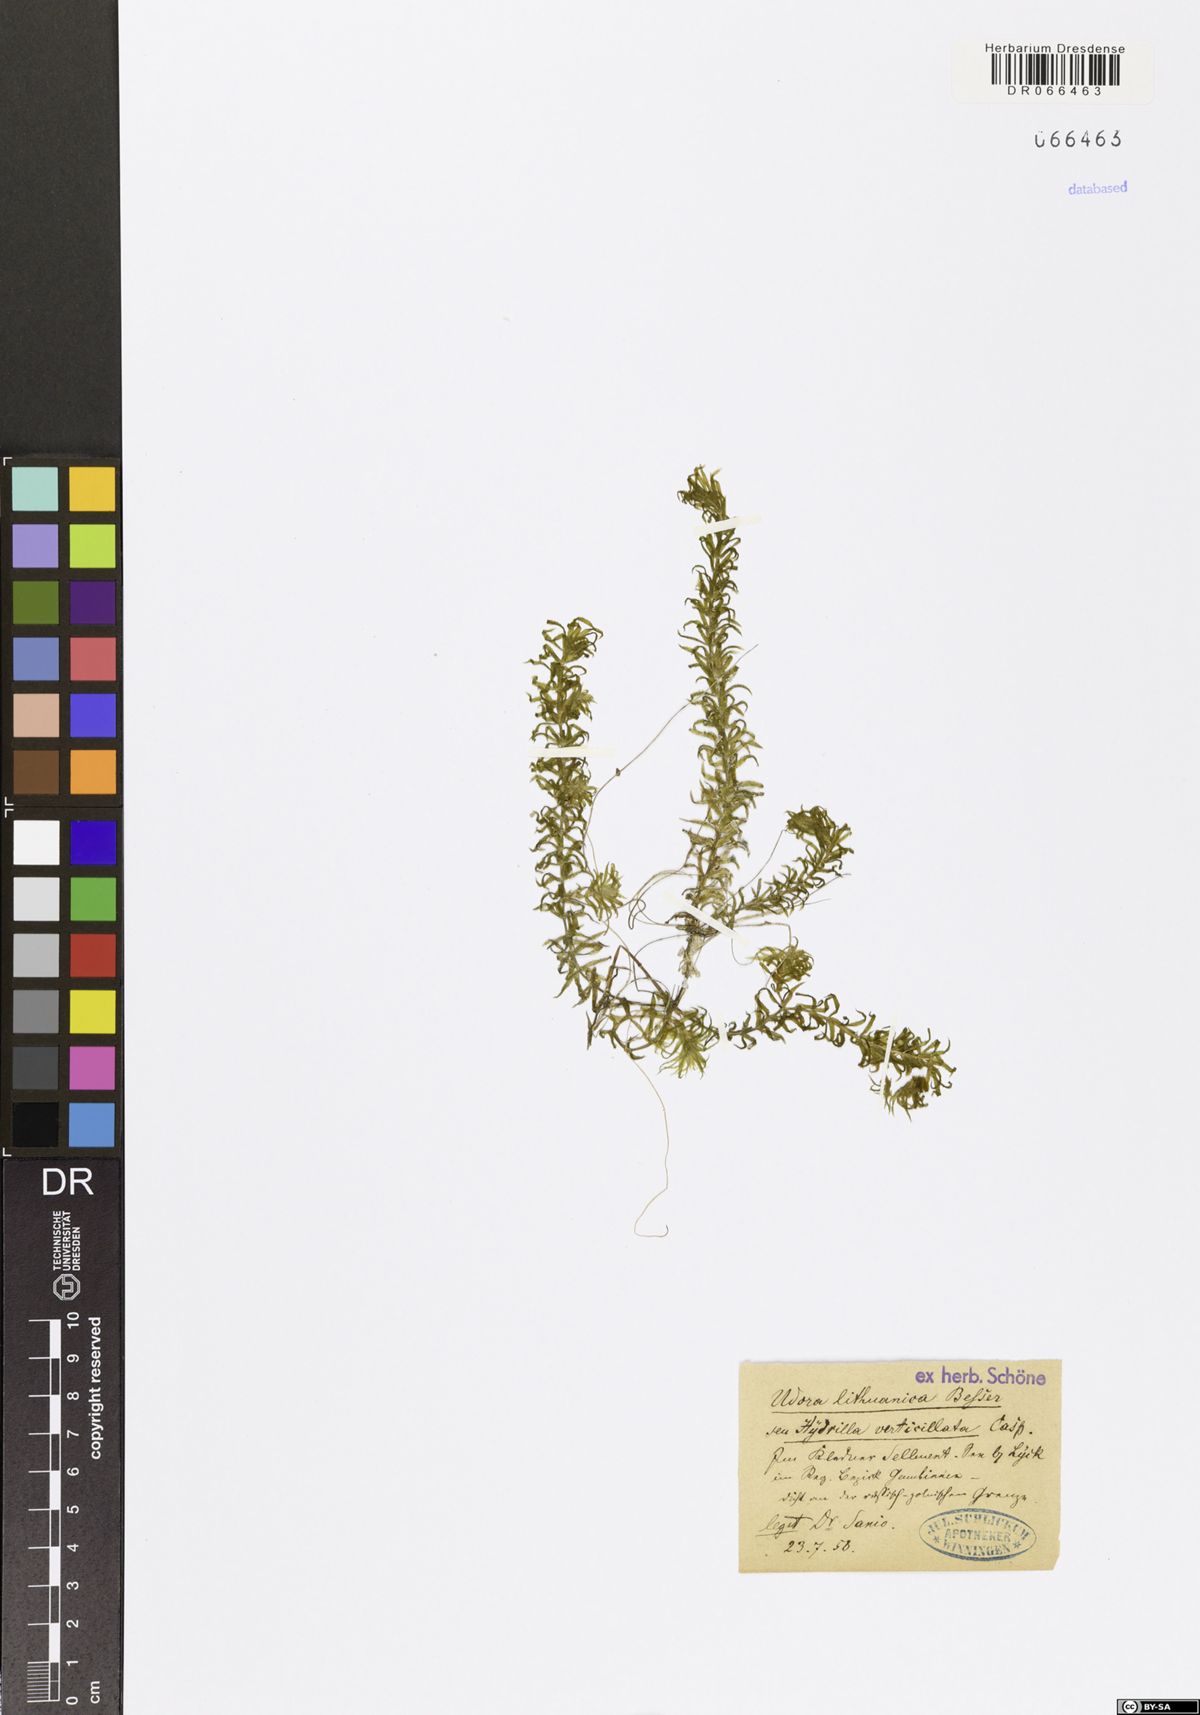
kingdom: Plantae
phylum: Tracheophyta
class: Liliopsida
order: Alismatales
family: Hydrocharitaceae
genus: Hydrilla
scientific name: Hydrilla verticillata
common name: Florida-elodea
